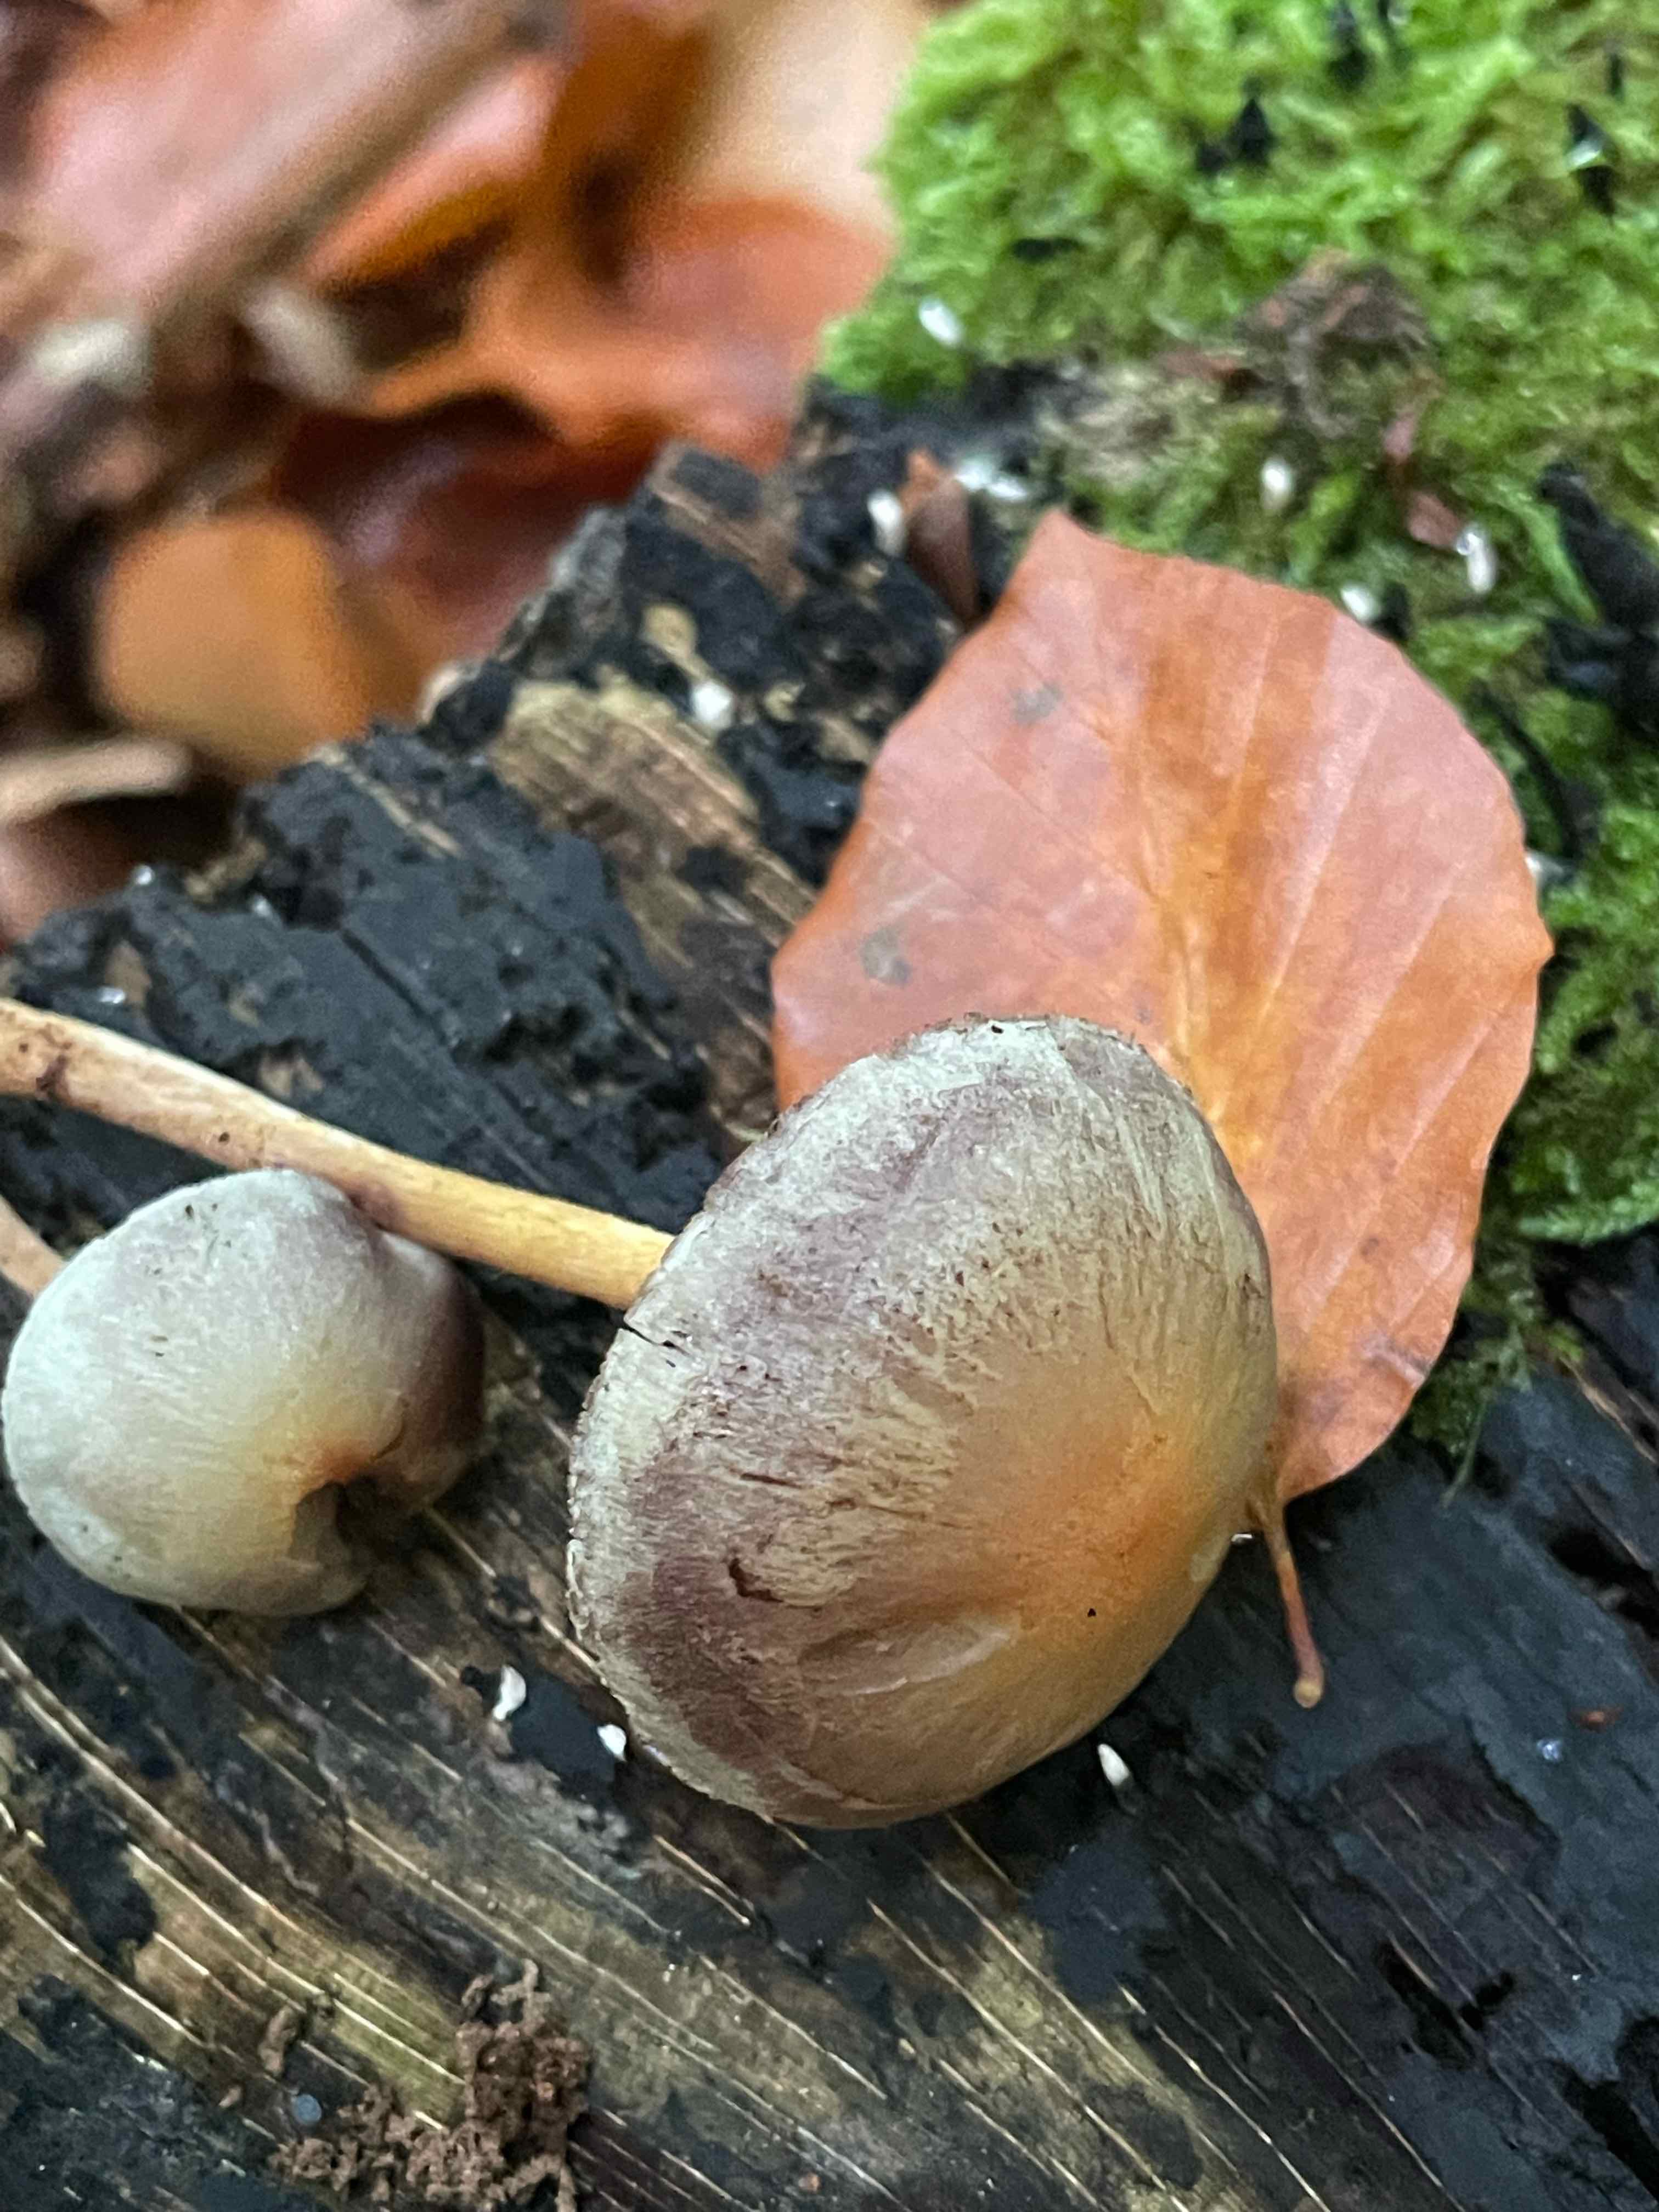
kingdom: Fungi
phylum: Basidiomycota
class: Agaricomycetes
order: Agaricales
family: Strophariaceae
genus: Hypholoma
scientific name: Hypholoma capnoides
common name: gran-svovlhat
